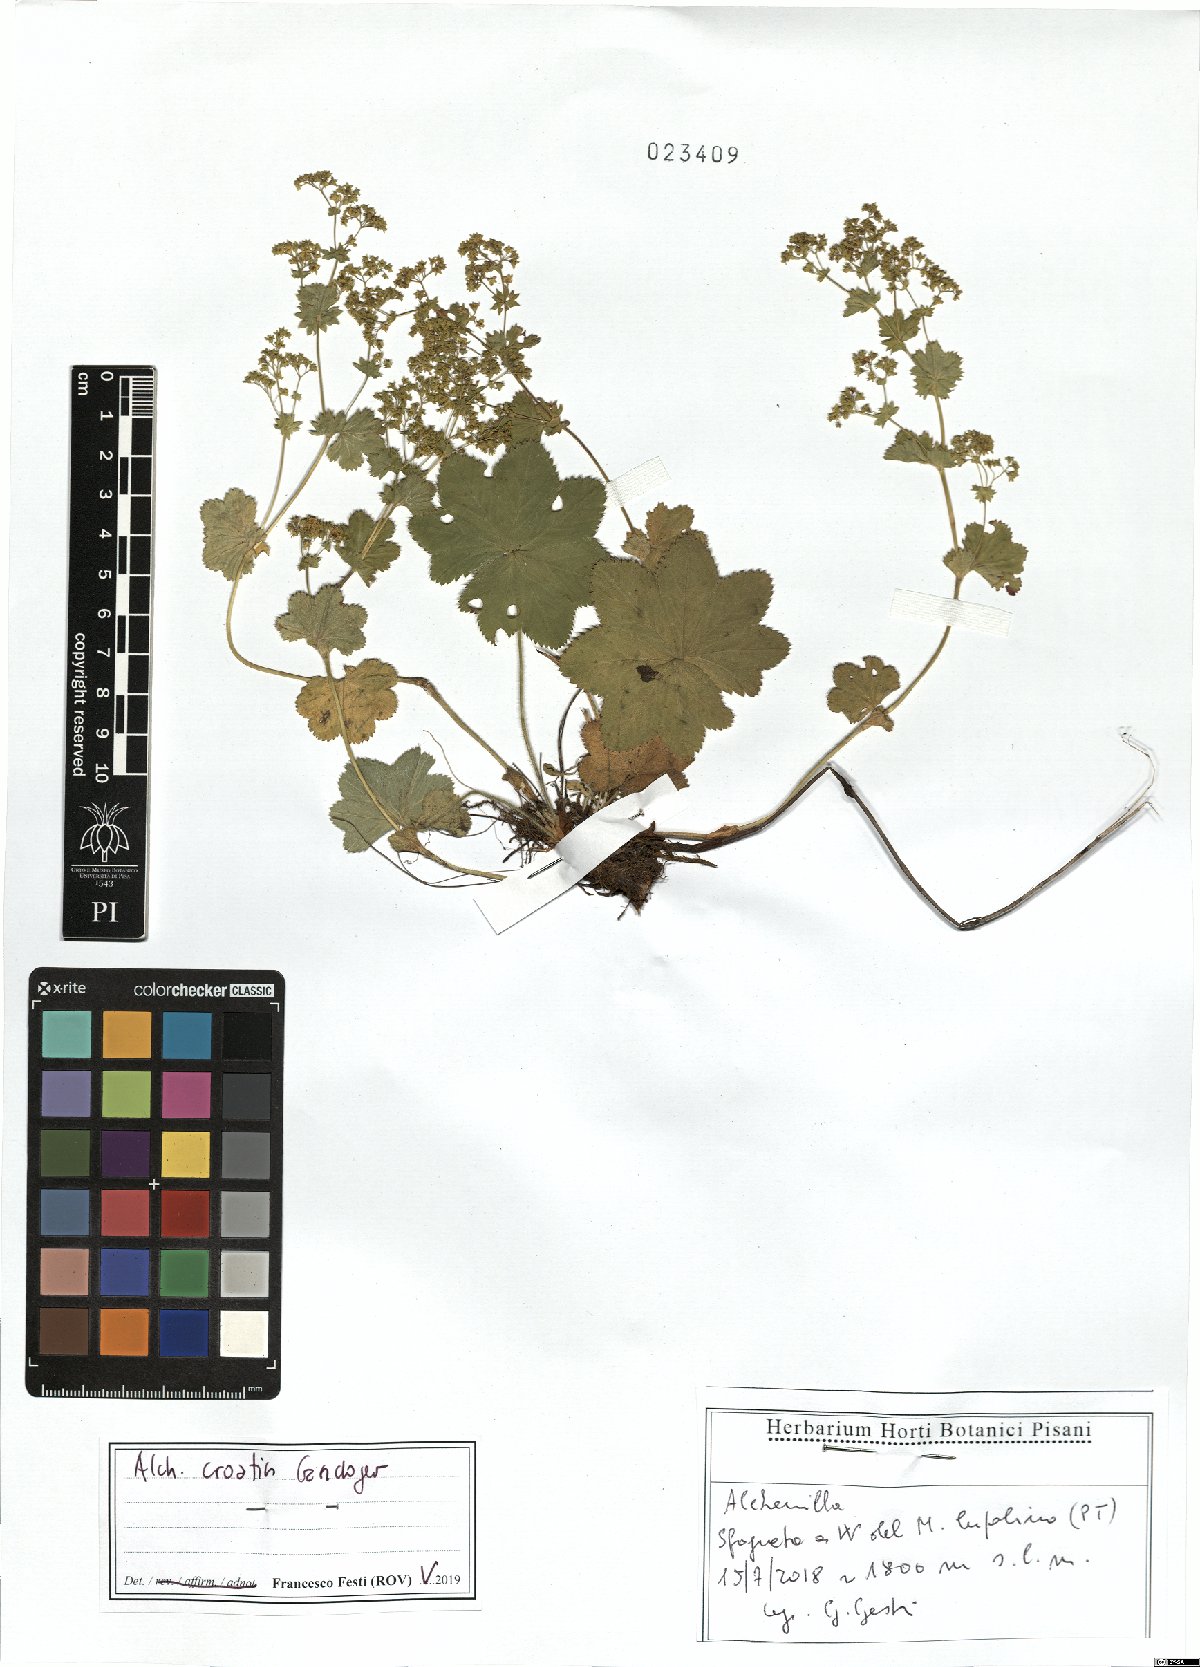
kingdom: Plantae
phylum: Tracheophyta
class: Magnoliopsida
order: Rosales
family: Rosaceae
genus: Alchemilla
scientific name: Alchemilla croatica
